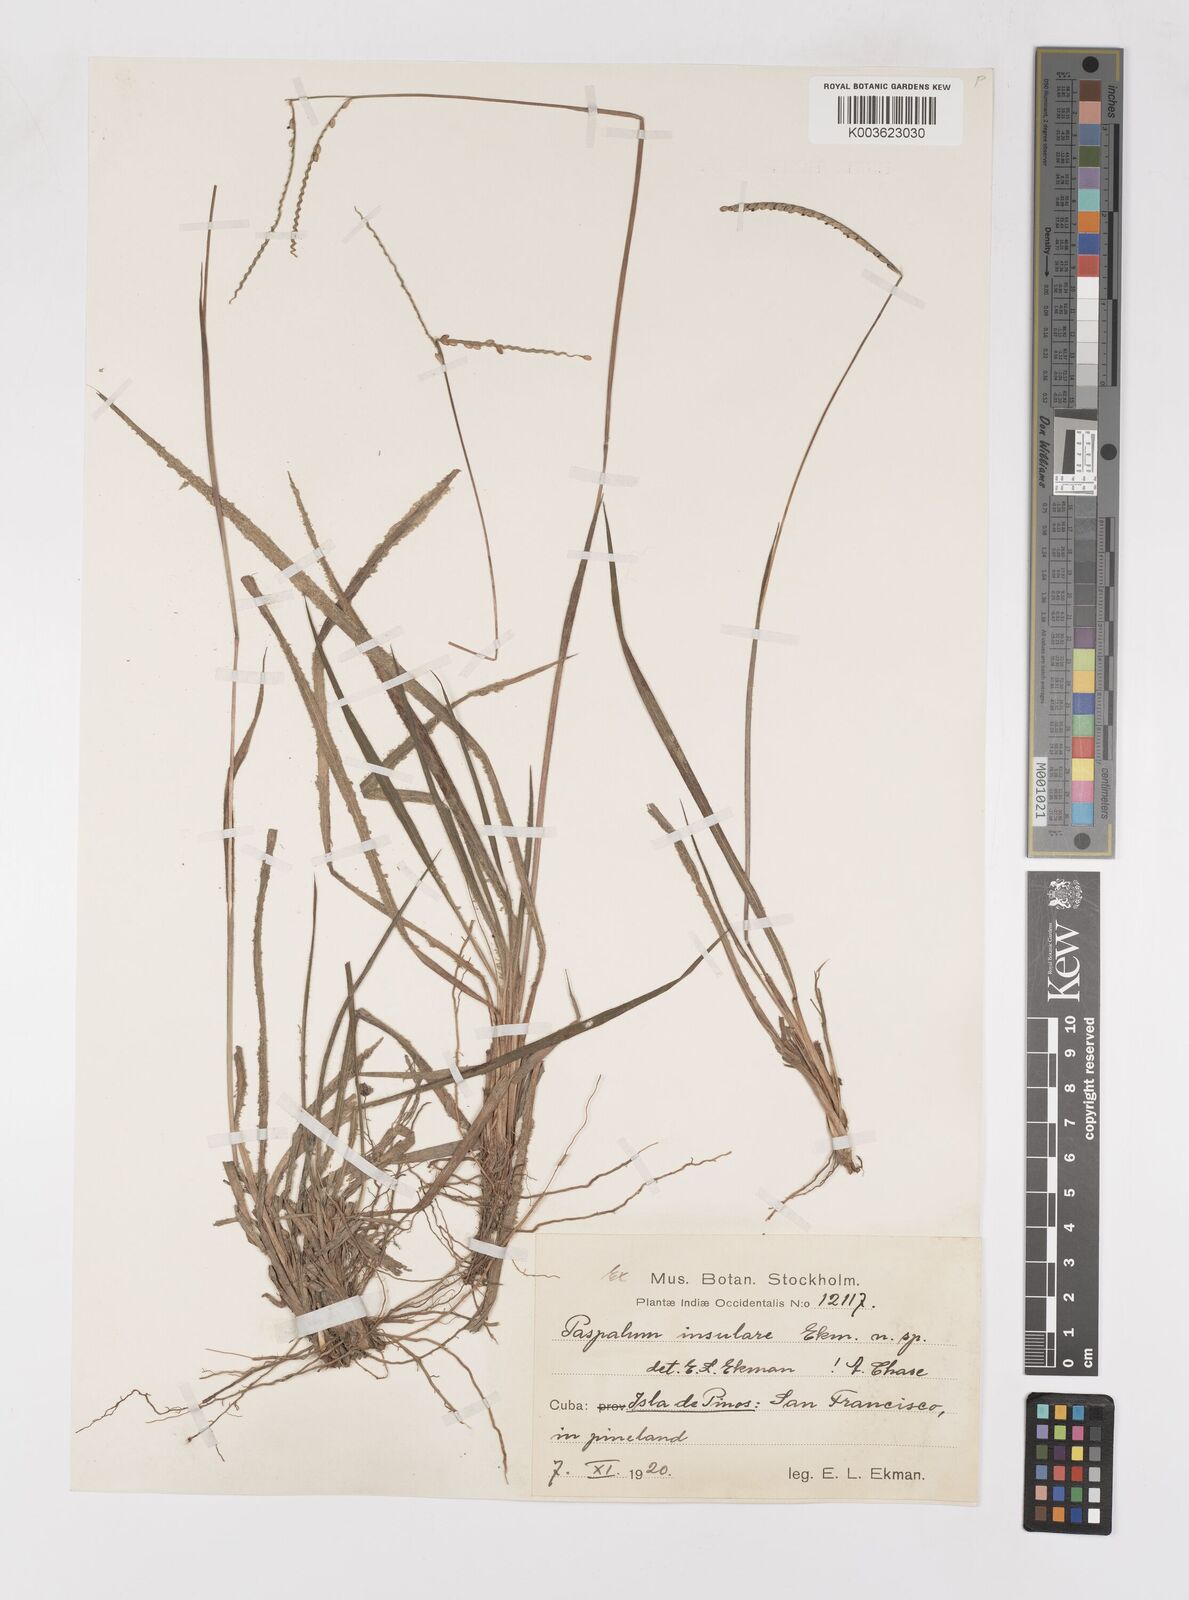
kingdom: Plantae
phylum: Tracheophyta
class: Liliopsida
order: Poales
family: Poaceae
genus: Paspalum
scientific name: Paspalum insulare
